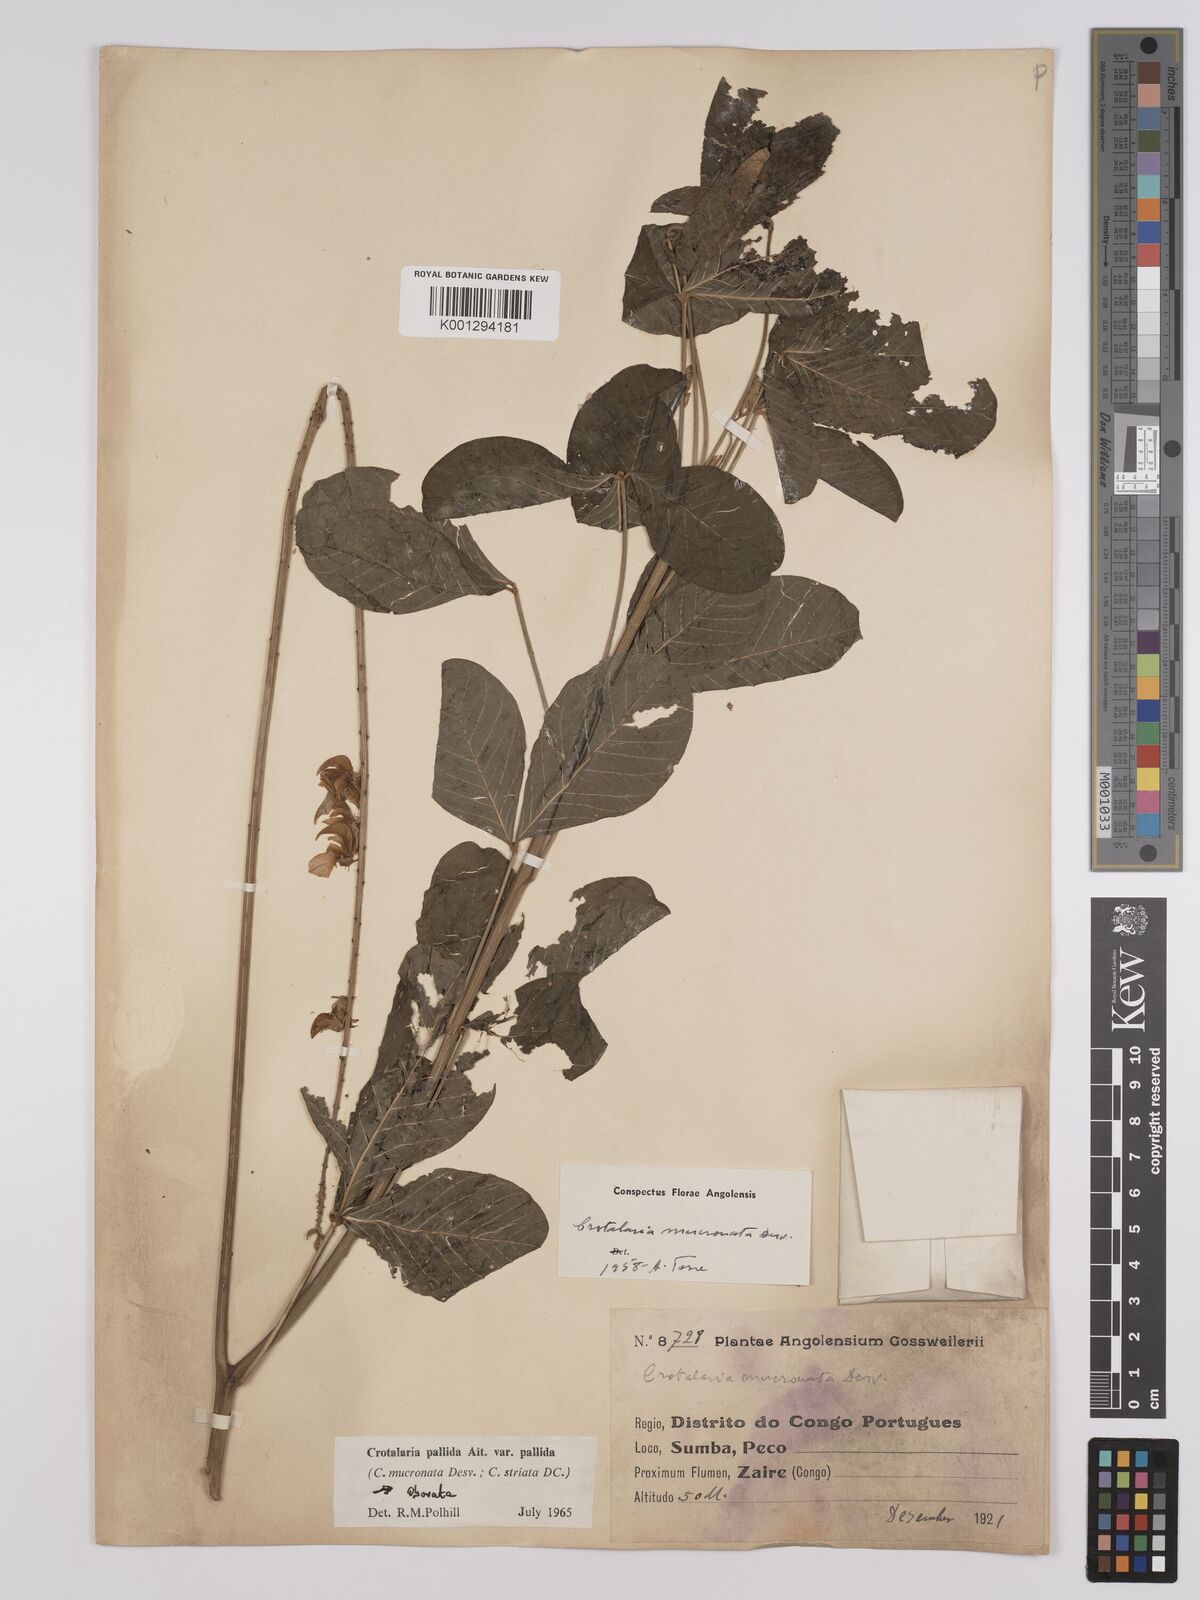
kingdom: Plantae
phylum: Tracheophyta
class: Magnoliopsida
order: Fabales
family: Fabaceae
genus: Crotalaria
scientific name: Crotalaria pallida
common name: Smooth rattlebox
